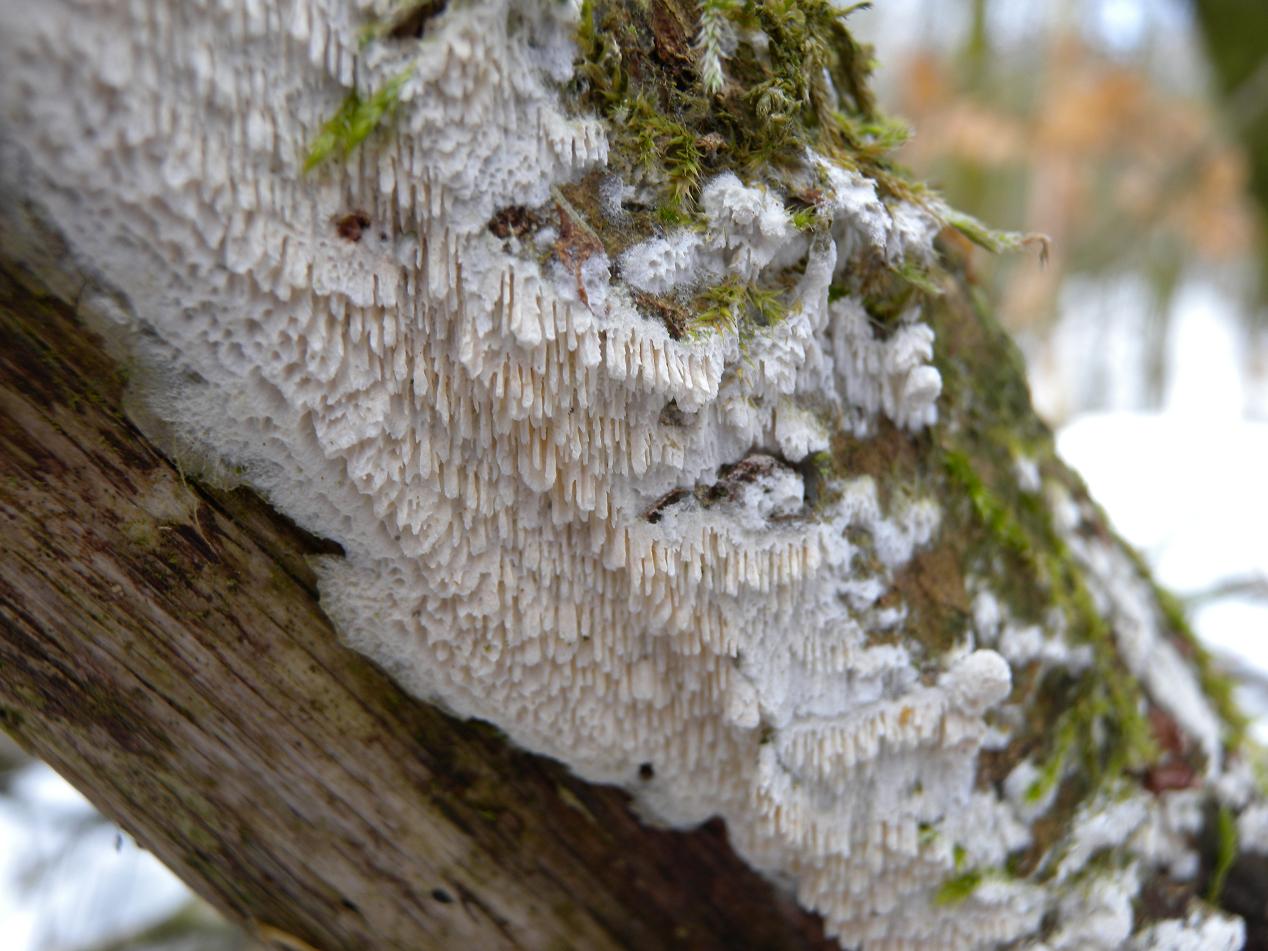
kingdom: Fungi
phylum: Basidiomycota
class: Agaricomycetes
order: Hymenochaetales
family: Schizoporaceae
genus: Schizopora
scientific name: Schizopora paradoxa
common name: hvid tandsvamp
